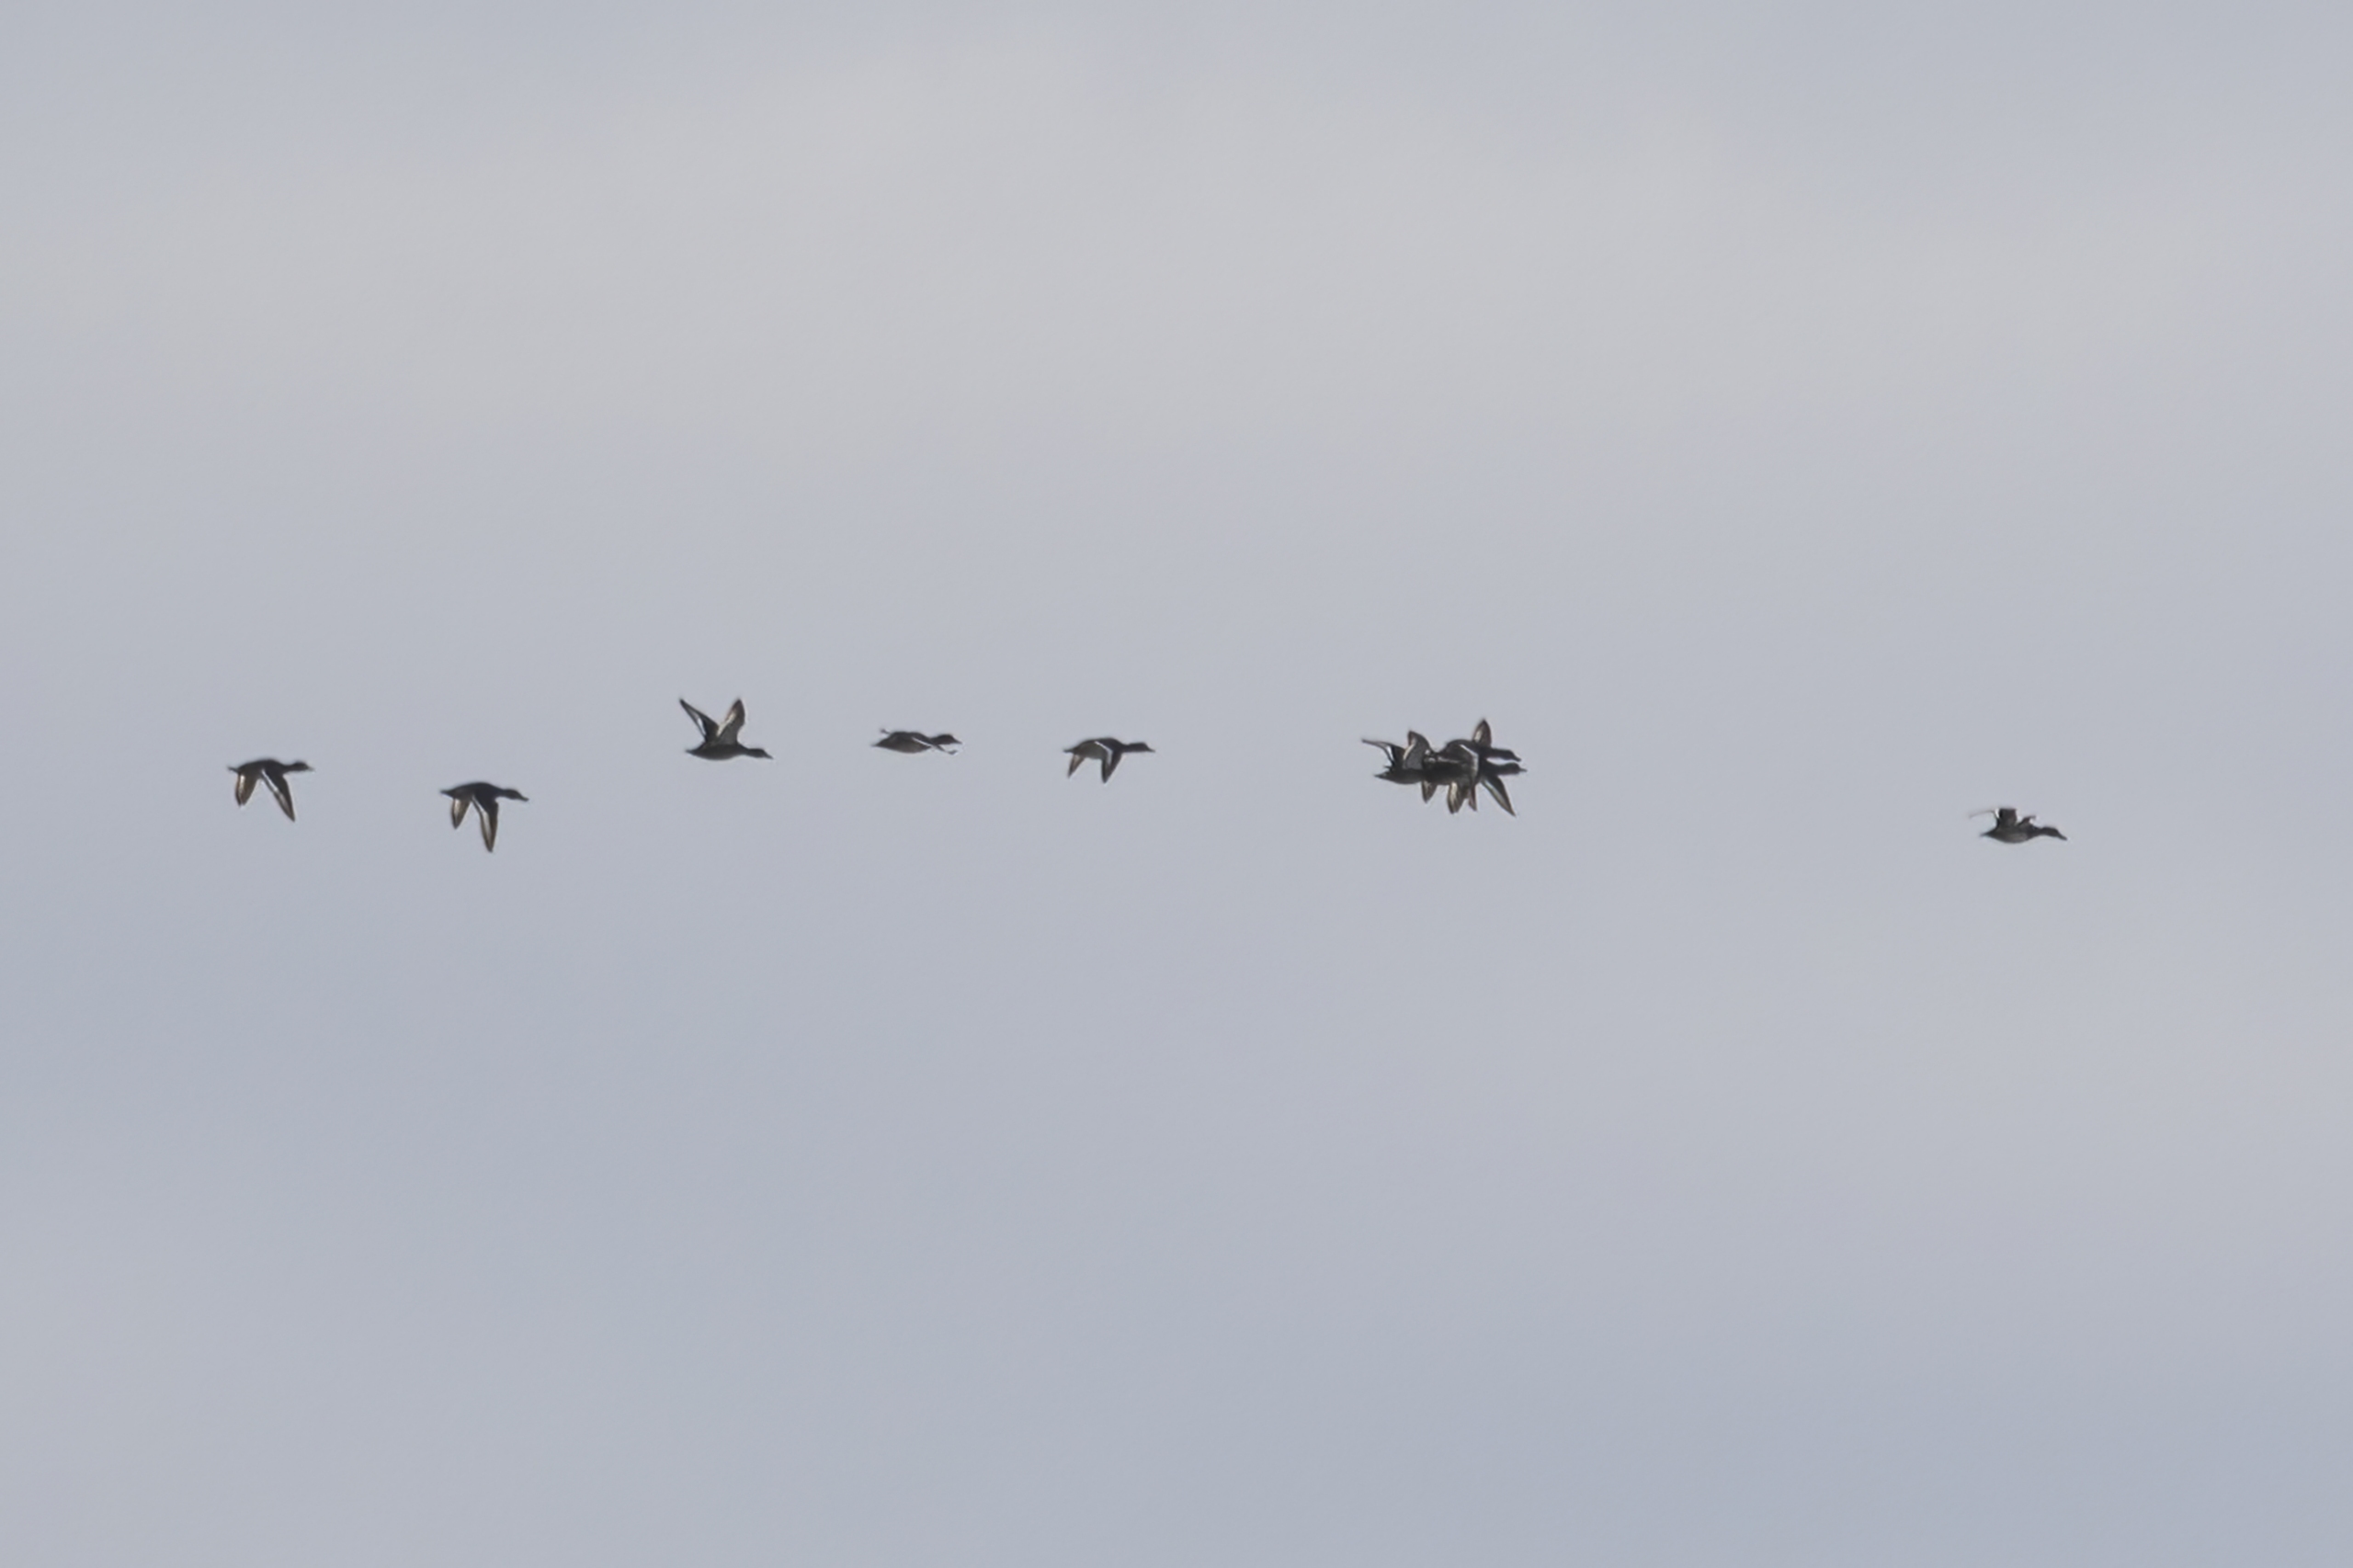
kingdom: Animalia
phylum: Chordata
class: Aves
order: Anseriformes
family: Anatidae
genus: Aythya
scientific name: Aythya fuligula
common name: Troldand
